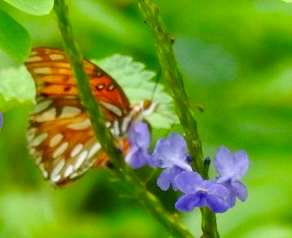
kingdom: Animalia
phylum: Arthropoda
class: Insecta
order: Lepidoptera
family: Nymphalidae
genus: Dione
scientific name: Dione vanillae
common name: Gulf Fritillary
